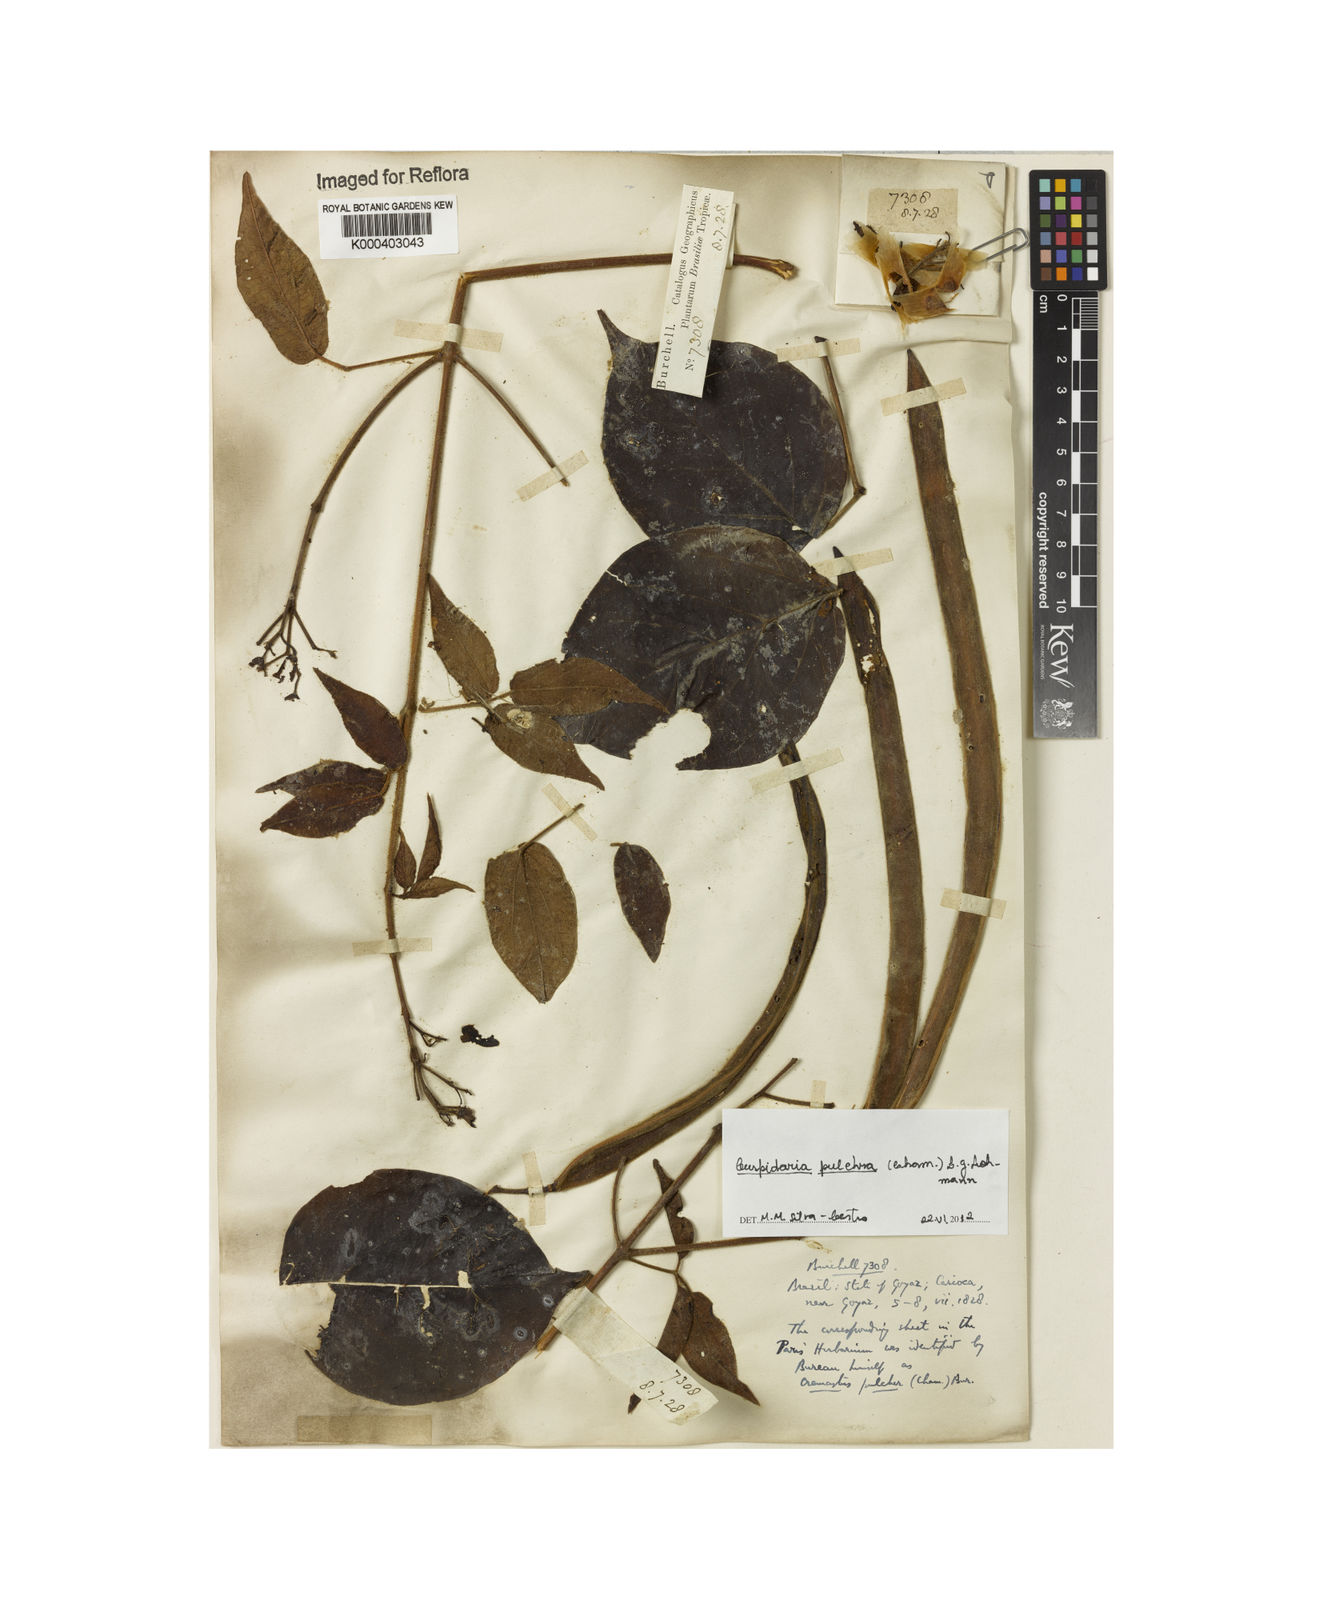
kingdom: Plantae
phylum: Tracheophyta
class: Magnoliopsida
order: Lamiales
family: Bignoniaceae
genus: Cuspidaria
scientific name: Cuspidaria pulchra
